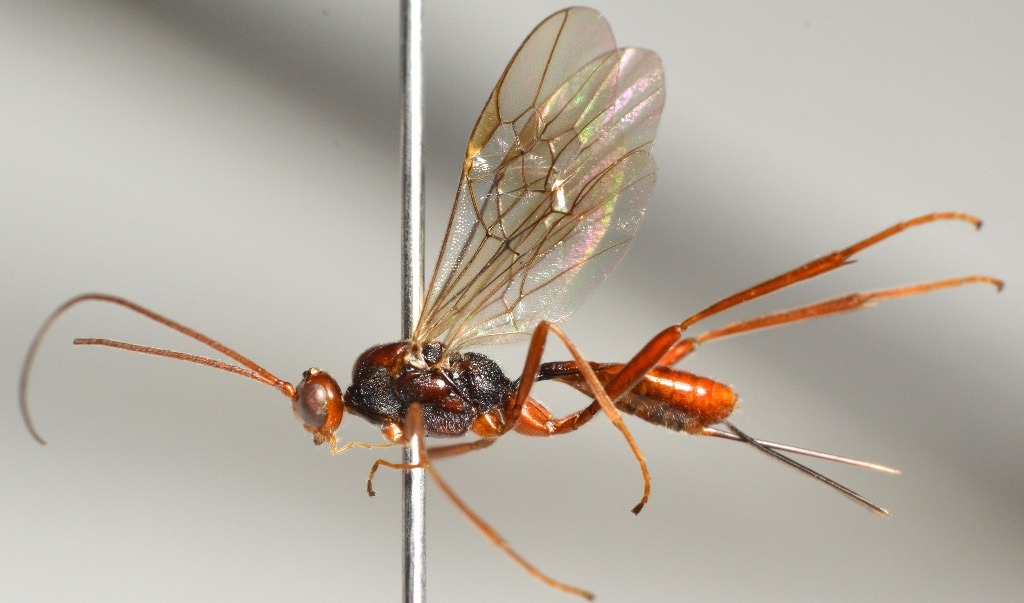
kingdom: Animalia
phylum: Arthropoda
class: Insecta
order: Hymenoptera
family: Braconidae
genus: Zele
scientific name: Zele chlorophthalmus
